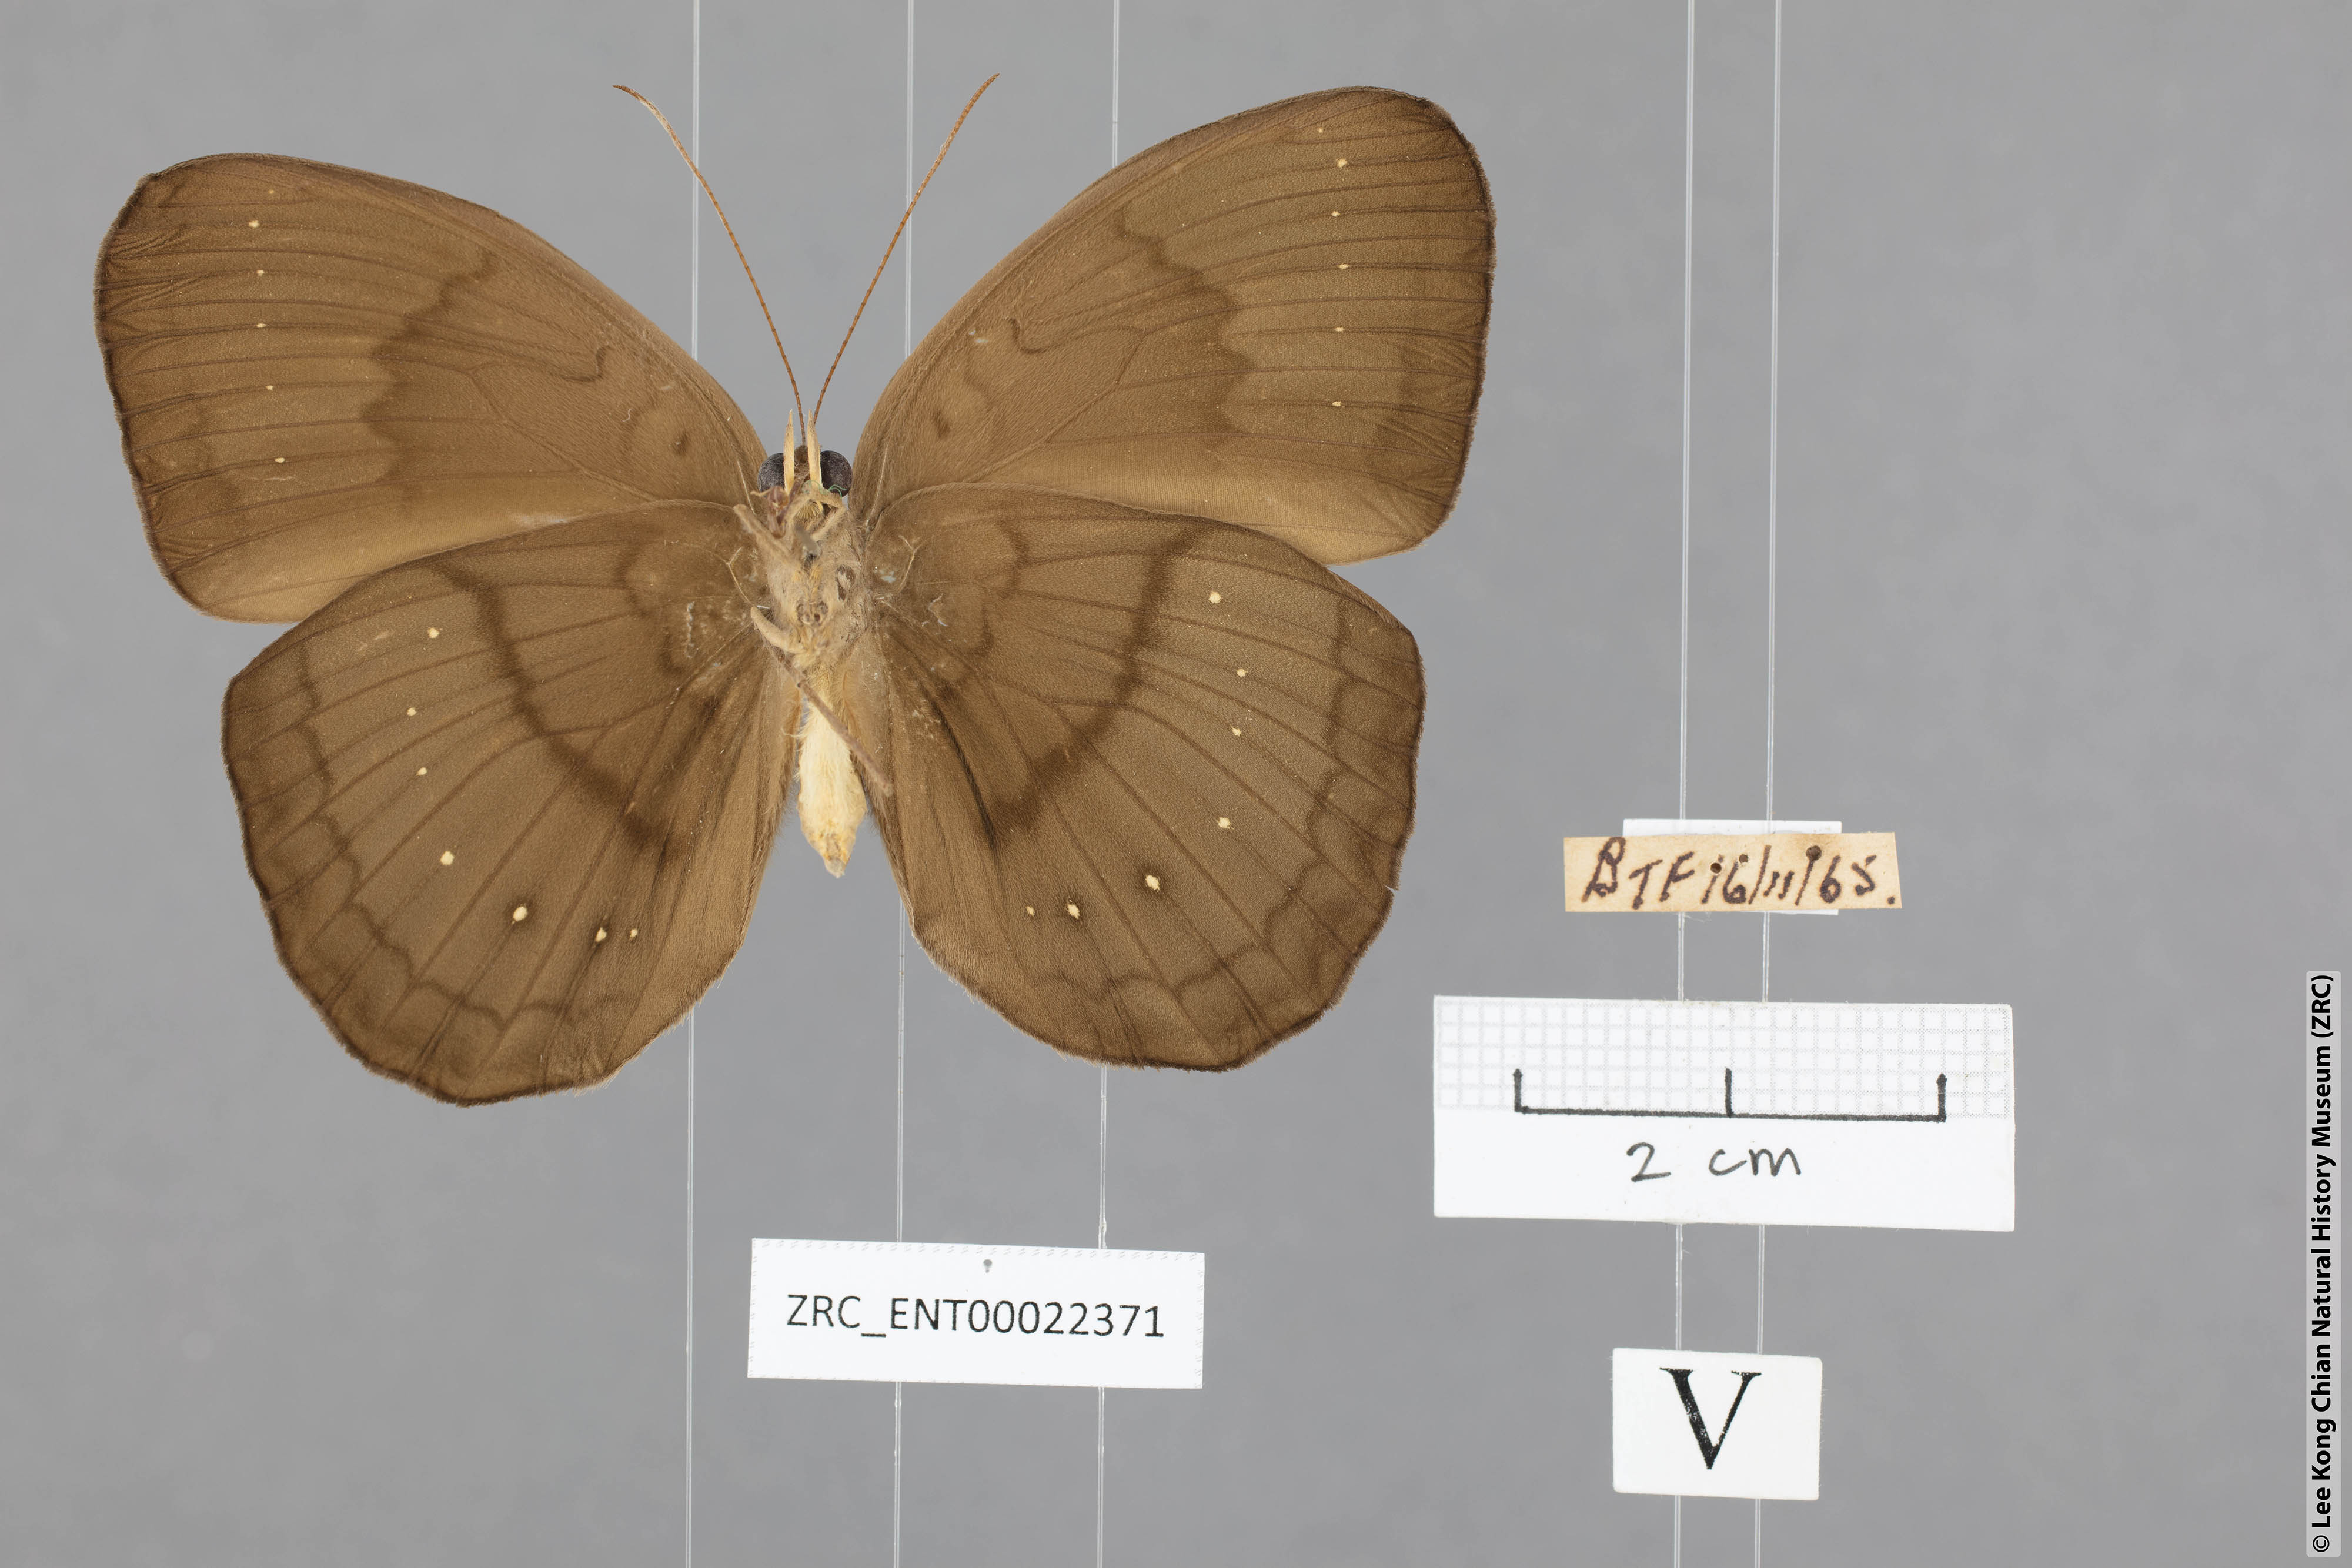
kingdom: Animalia
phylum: Arthropoda
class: Insecta
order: Lepidoptera
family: Nymphalidae
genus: Faunis
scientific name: Faunis canens
